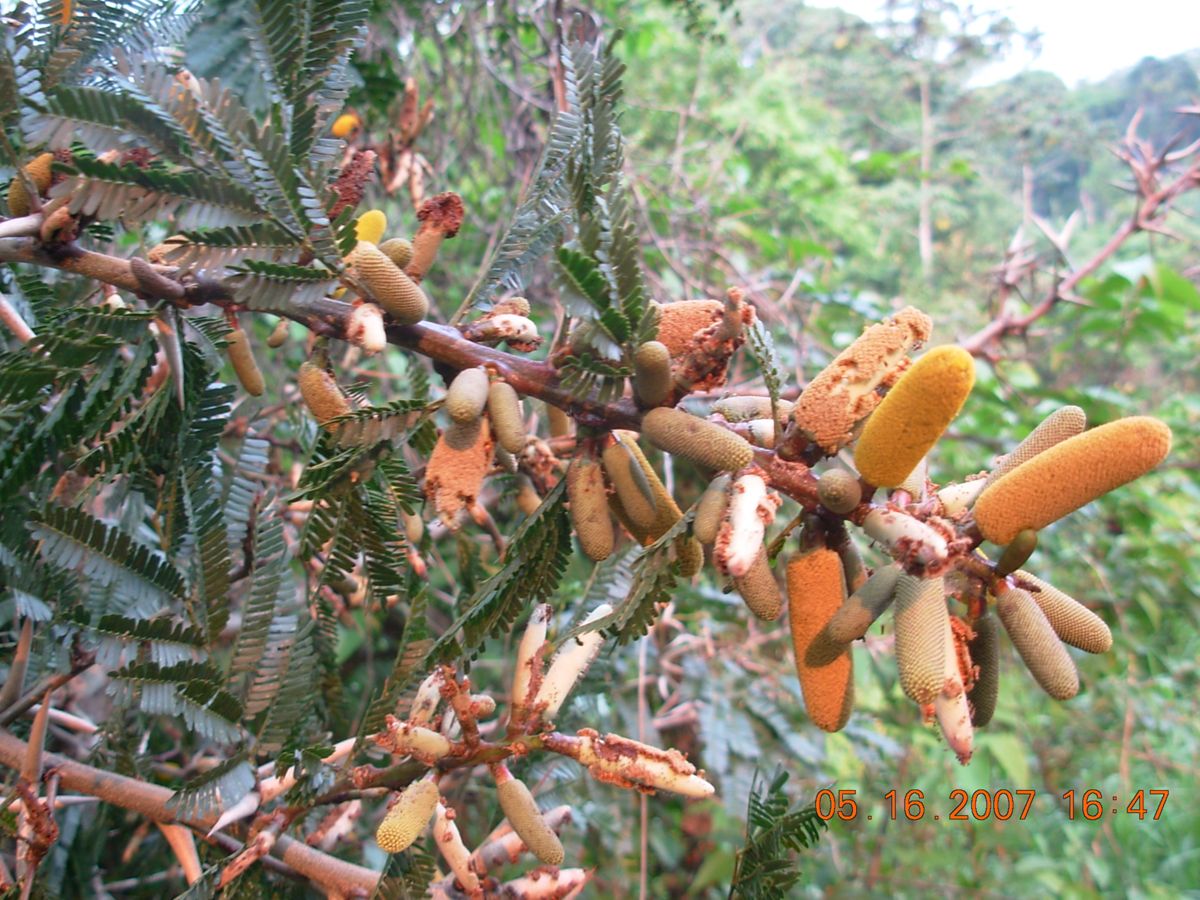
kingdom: Plantae
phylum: Tracheophyta
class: Magnoliopsida
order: Fabales
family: Fabaceae
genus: Vachellia
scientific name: Vachellia cornigera
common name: Bullhorn wattle
